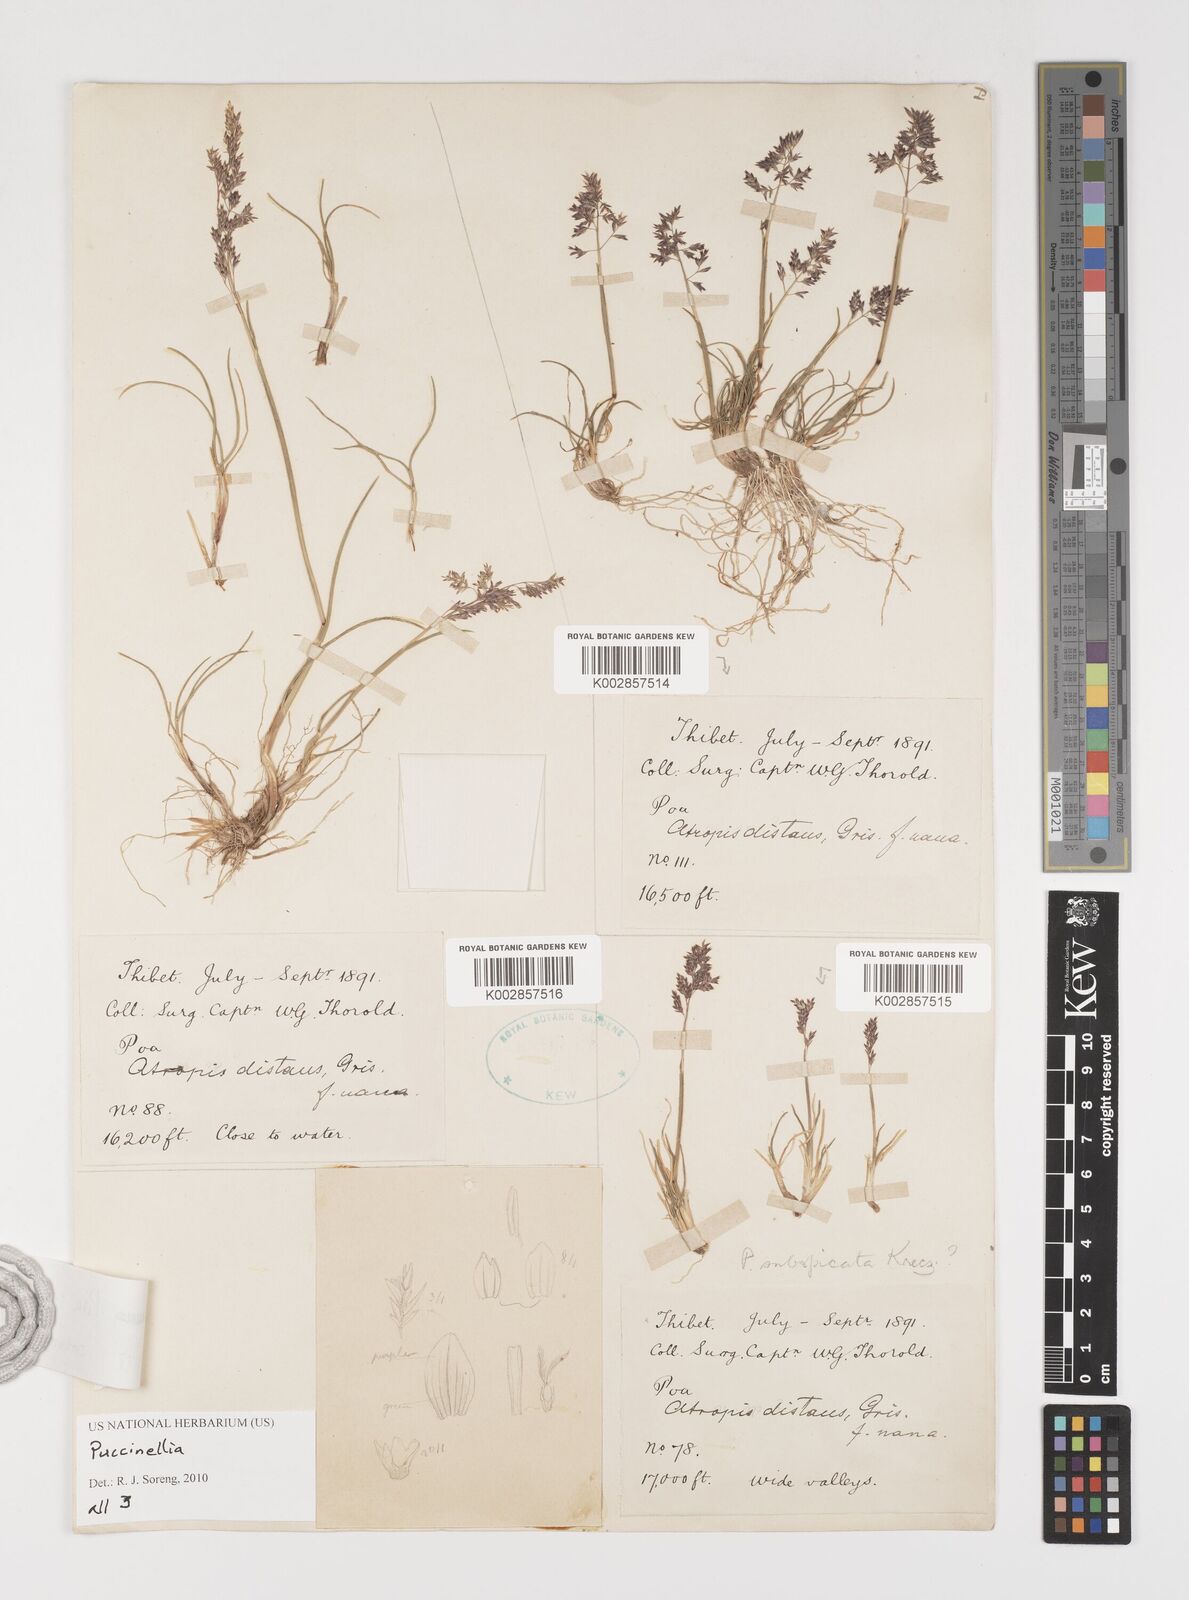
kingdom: Plantae
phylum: Tracheophyta
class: Liliopsida
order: Poales
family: Poaceae
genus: Puccinellia
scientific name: Puccinellia
